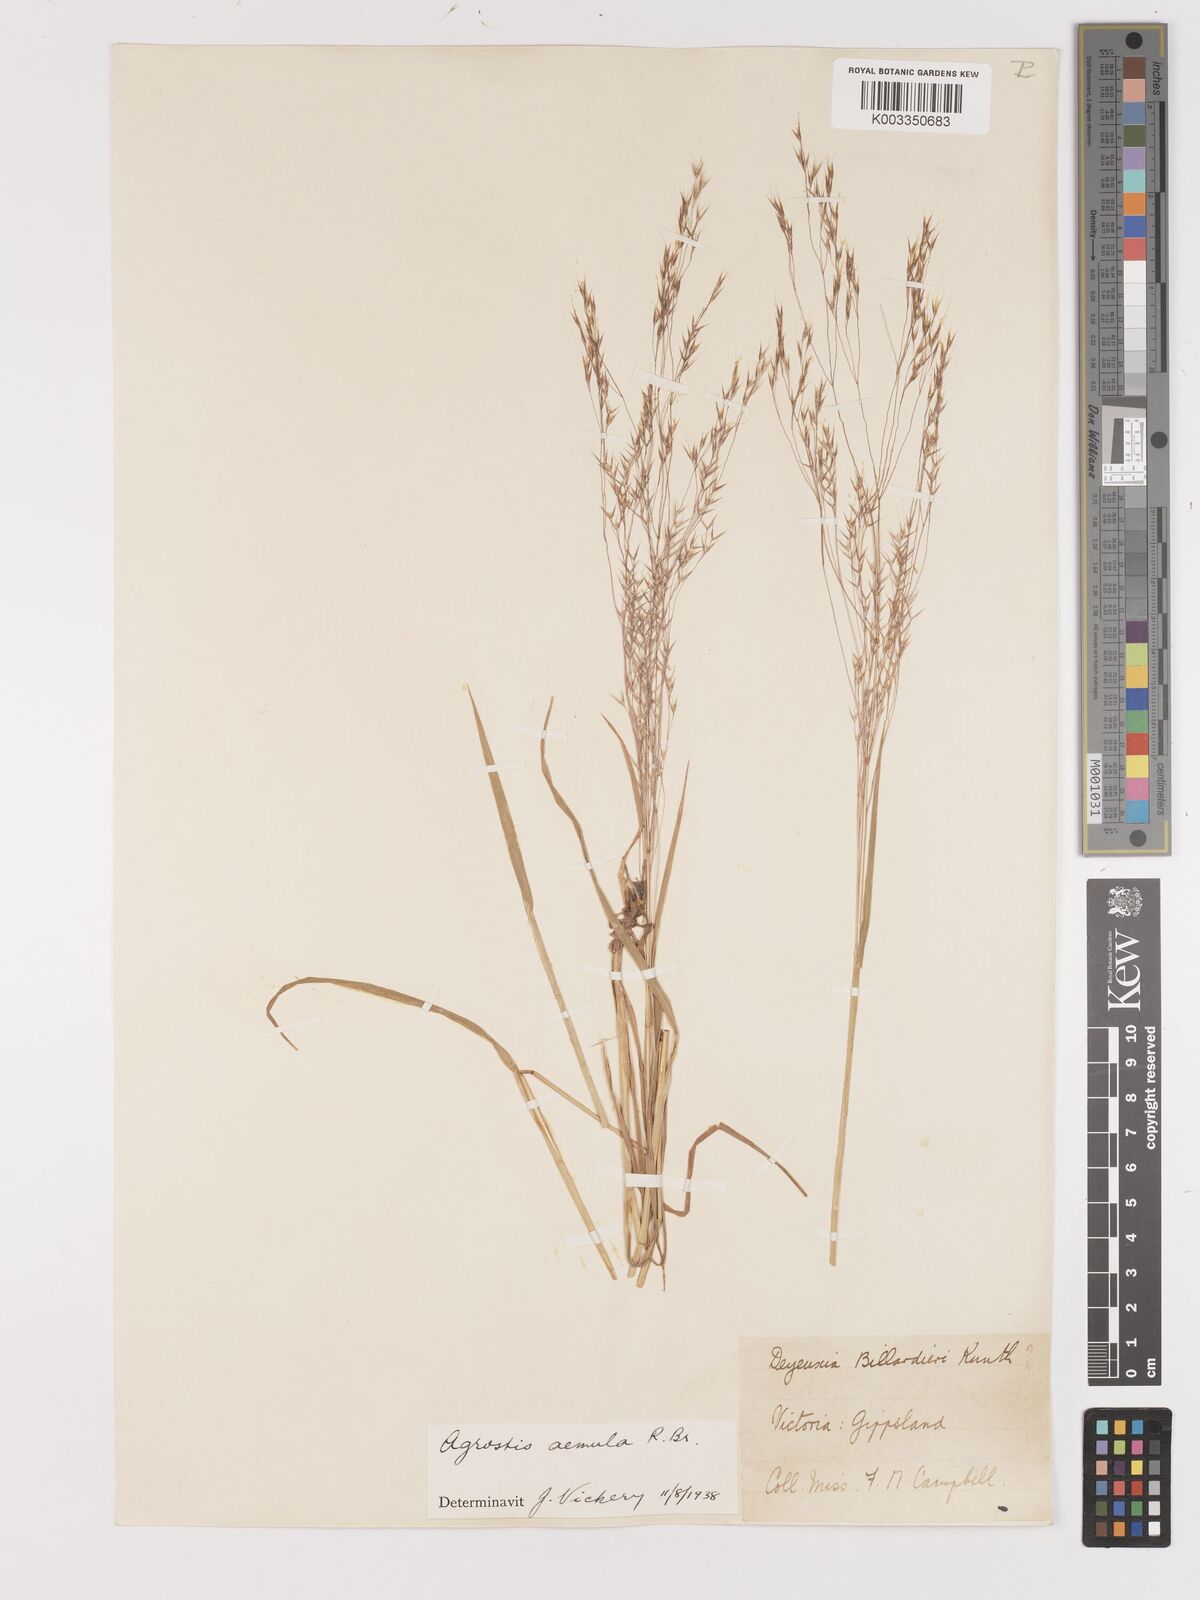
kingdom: Plantae
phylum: Tracheophyta
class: Liliopsida
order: Poales
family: Poaceae
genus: Lachnagrostis
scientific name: Lachnagrostis aemula
